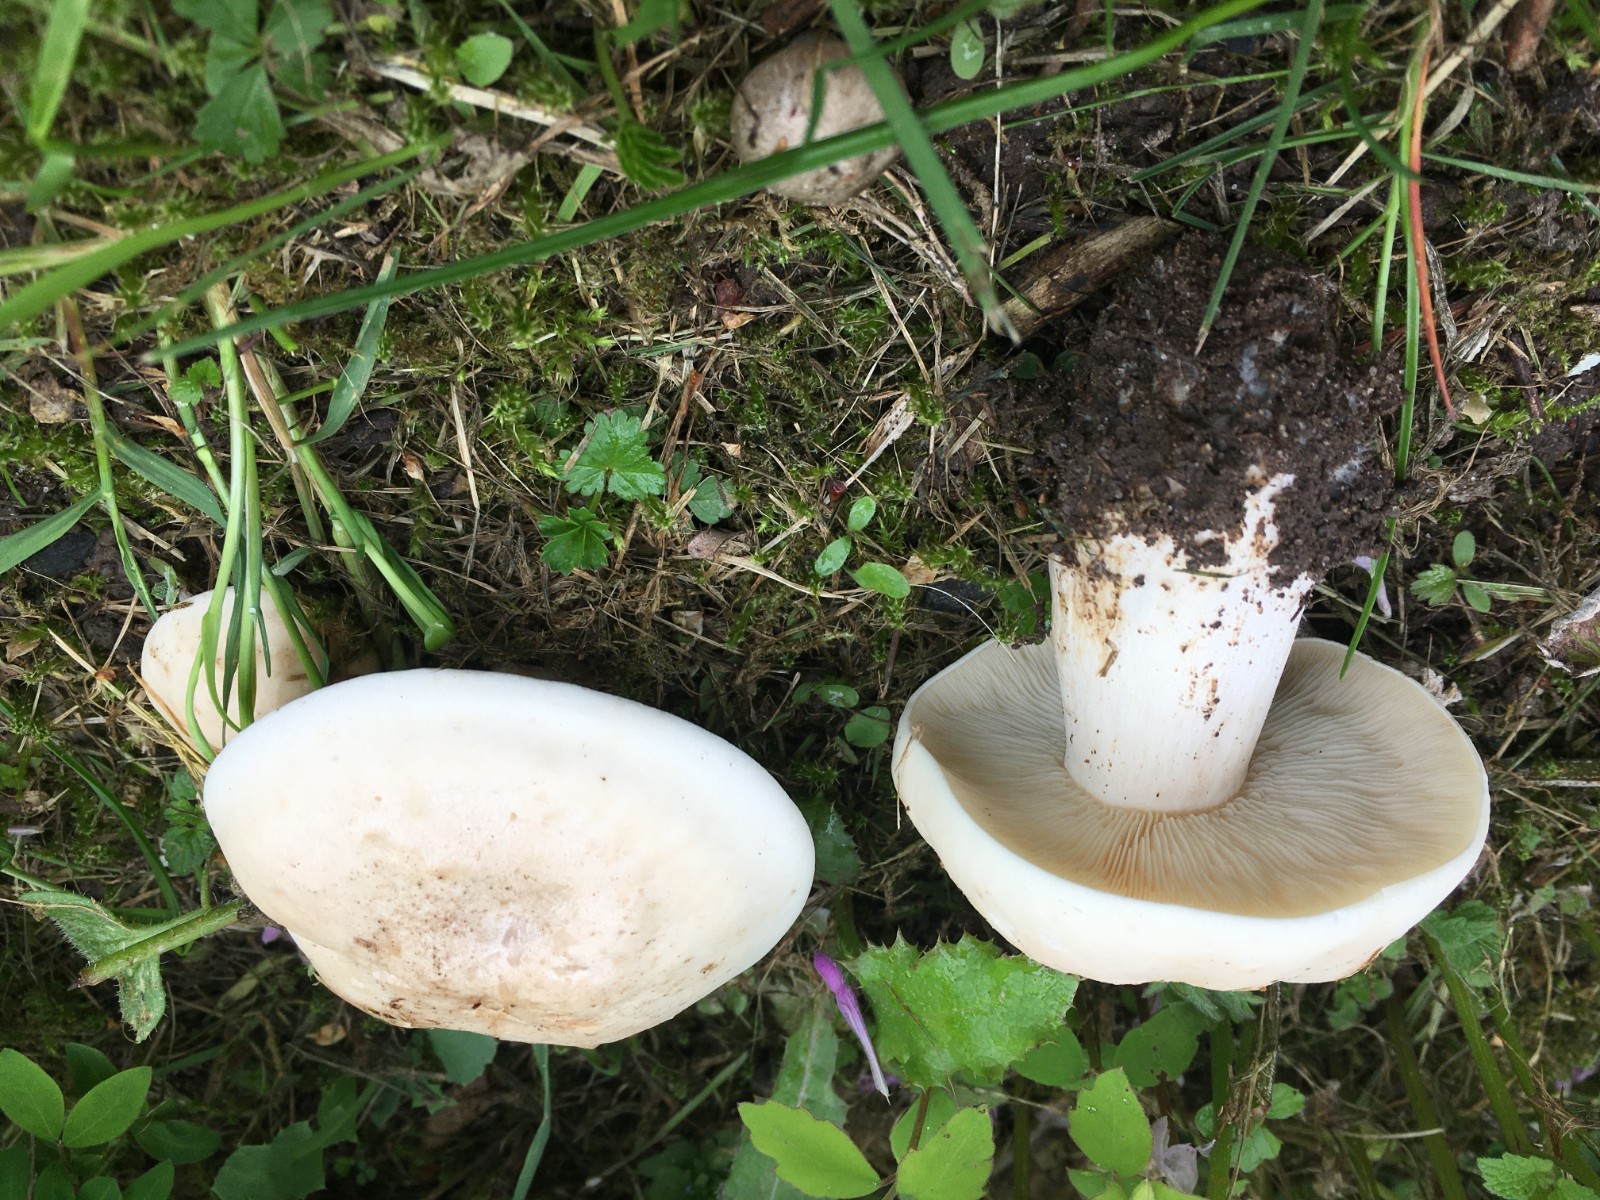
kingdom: Fungi
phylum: Basidiomycota
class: Agaricomycetes
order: Agaricales
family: Lyophyllaceae
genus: Calocybe
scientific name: Calocybe gambosa
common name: vårmusseron
